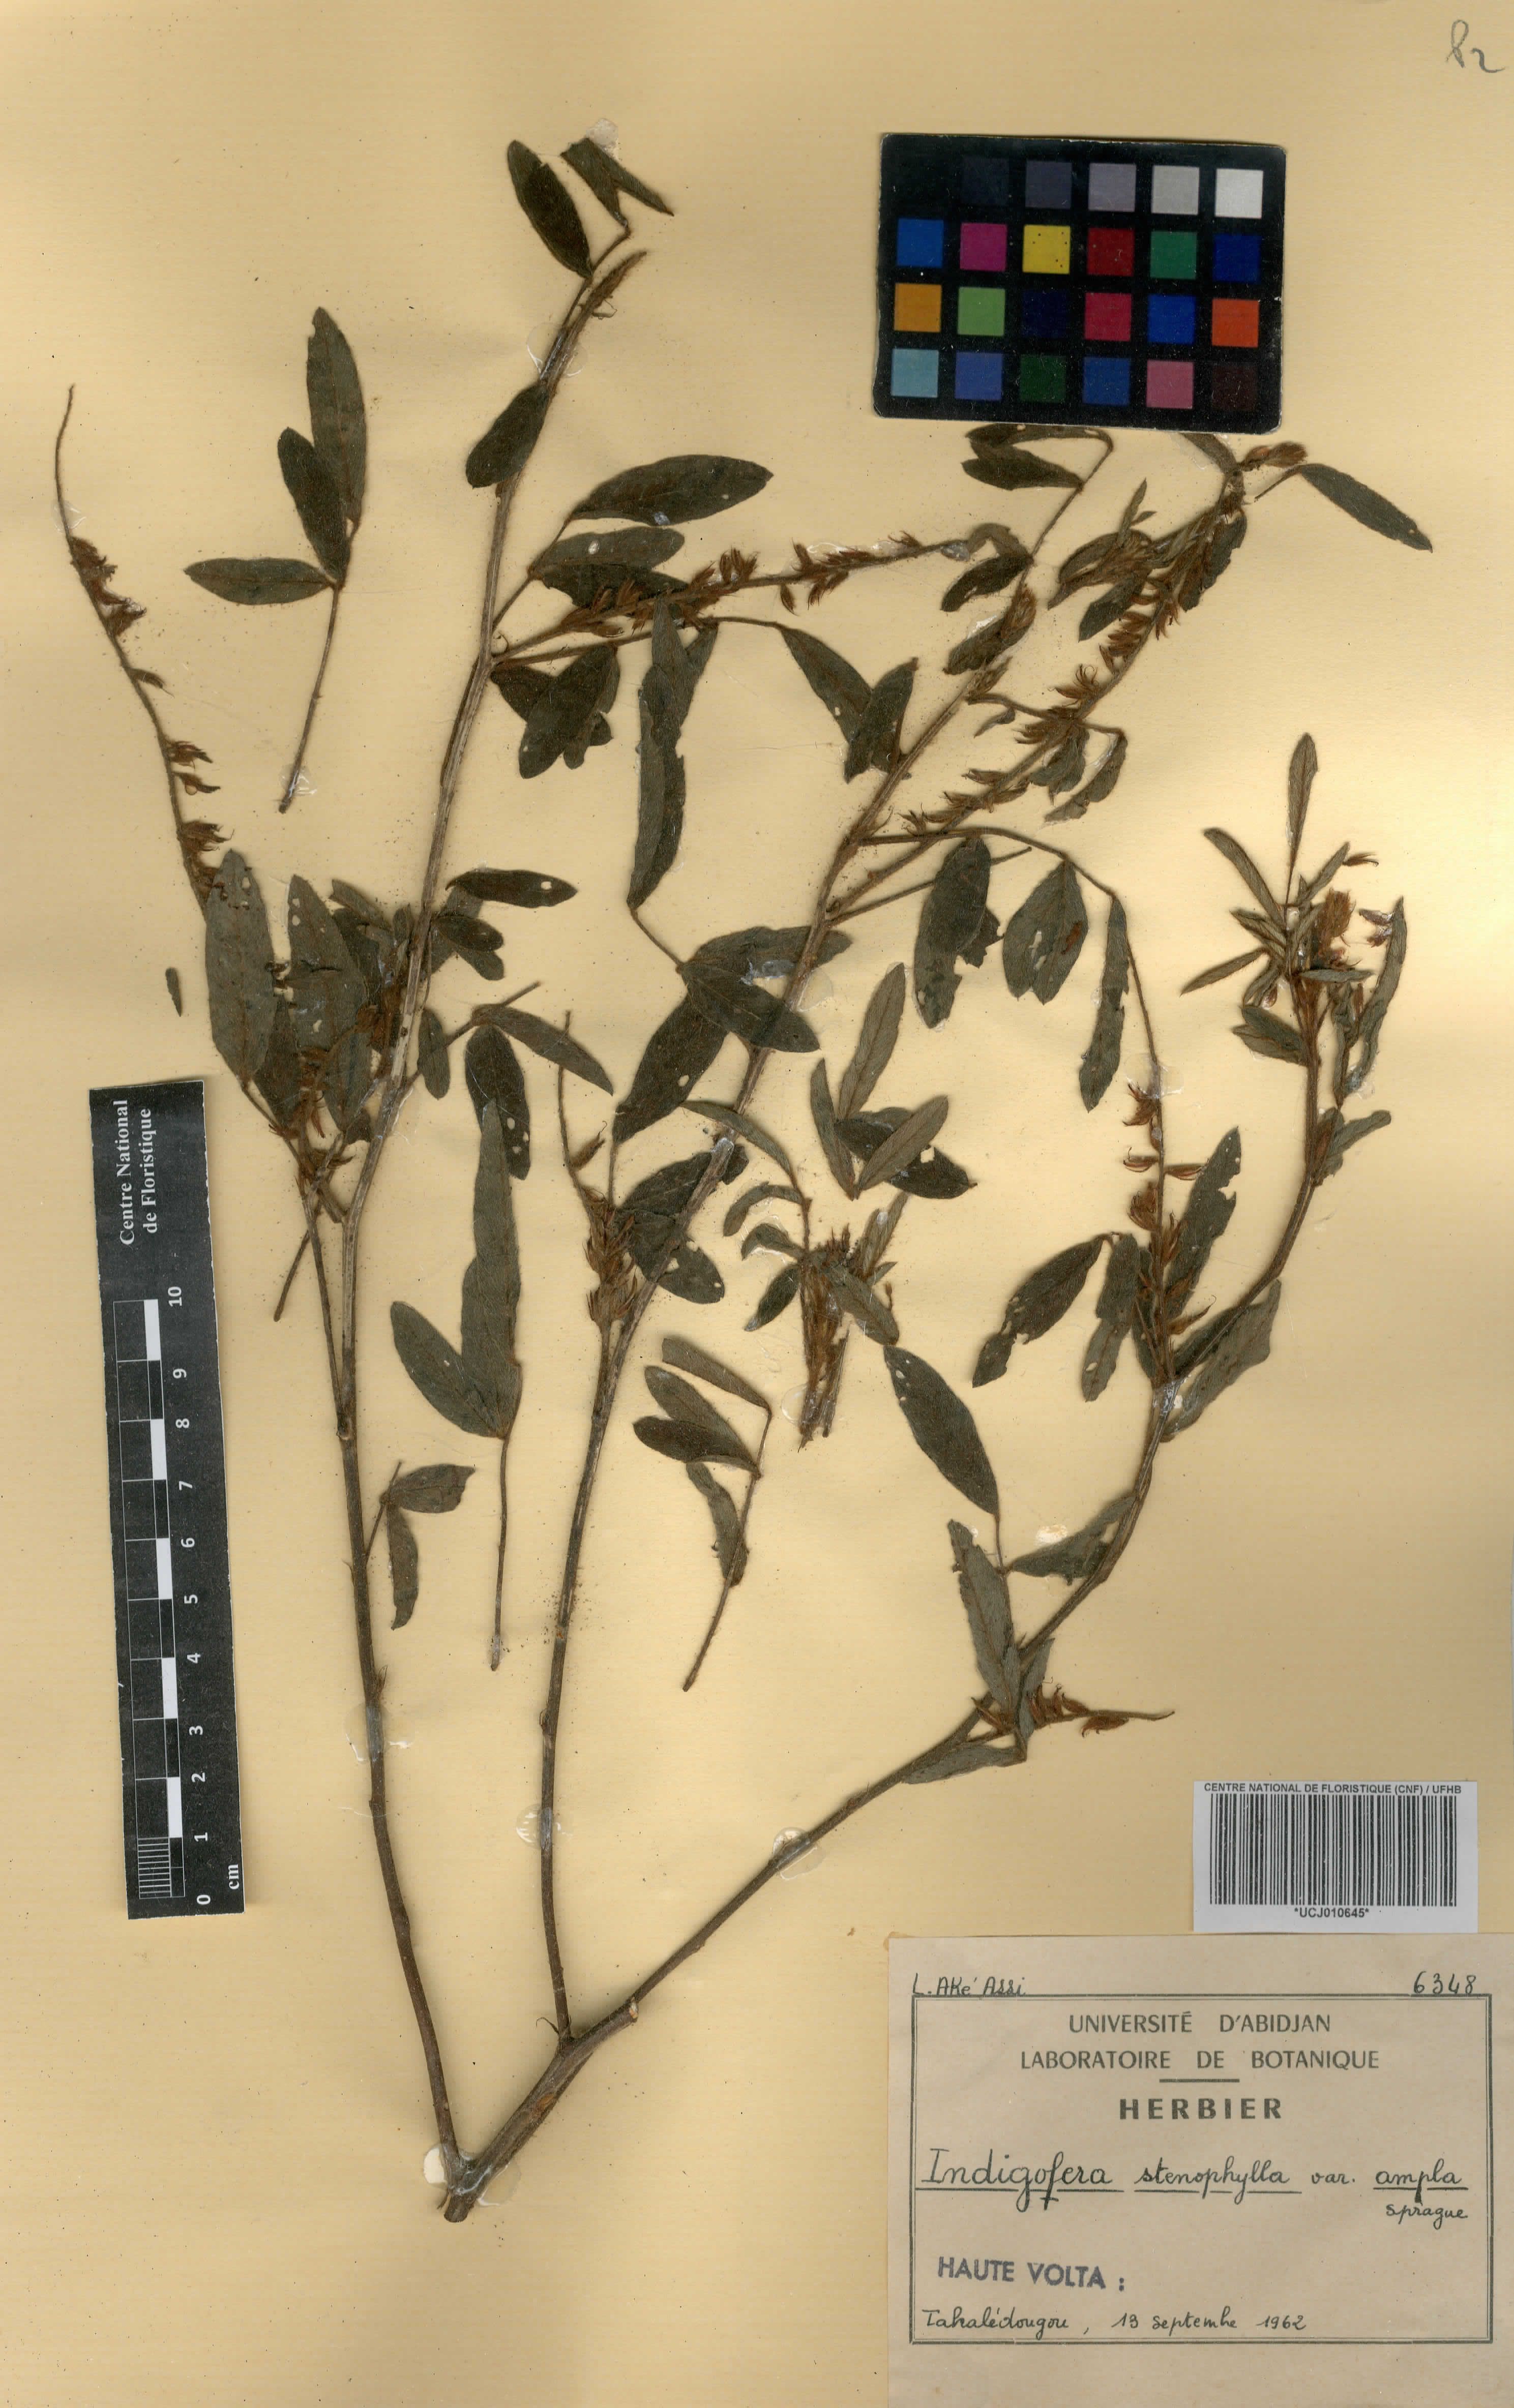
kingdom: Plantae
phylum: Tracheophyta
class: Magnoliopsida
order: Fabales
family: Fabaceae
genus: Indigofera
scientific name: Indigofera suffruticosa
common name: Anil de pasto
